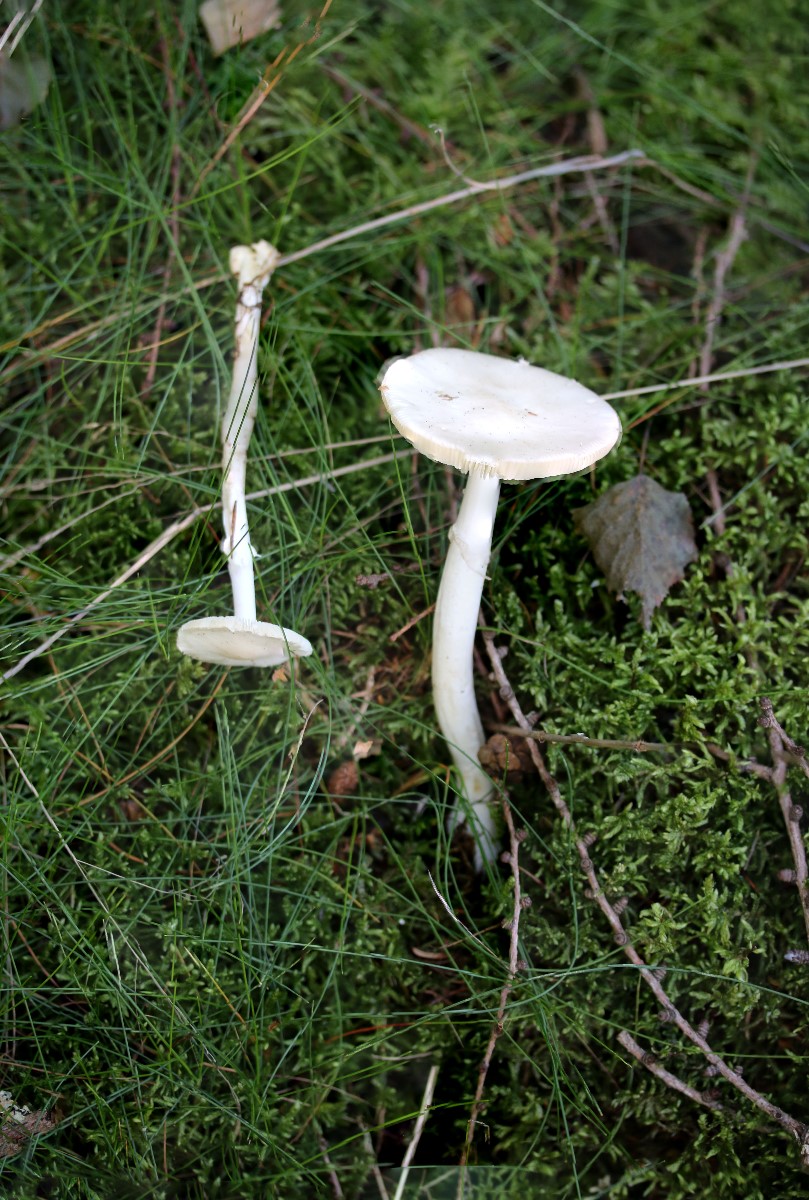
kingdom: Fungi
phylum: Basidiomycota
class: Agaricomycetes
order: Agaricales
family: Amanitaceae
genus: Amanita
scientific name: Amanita
